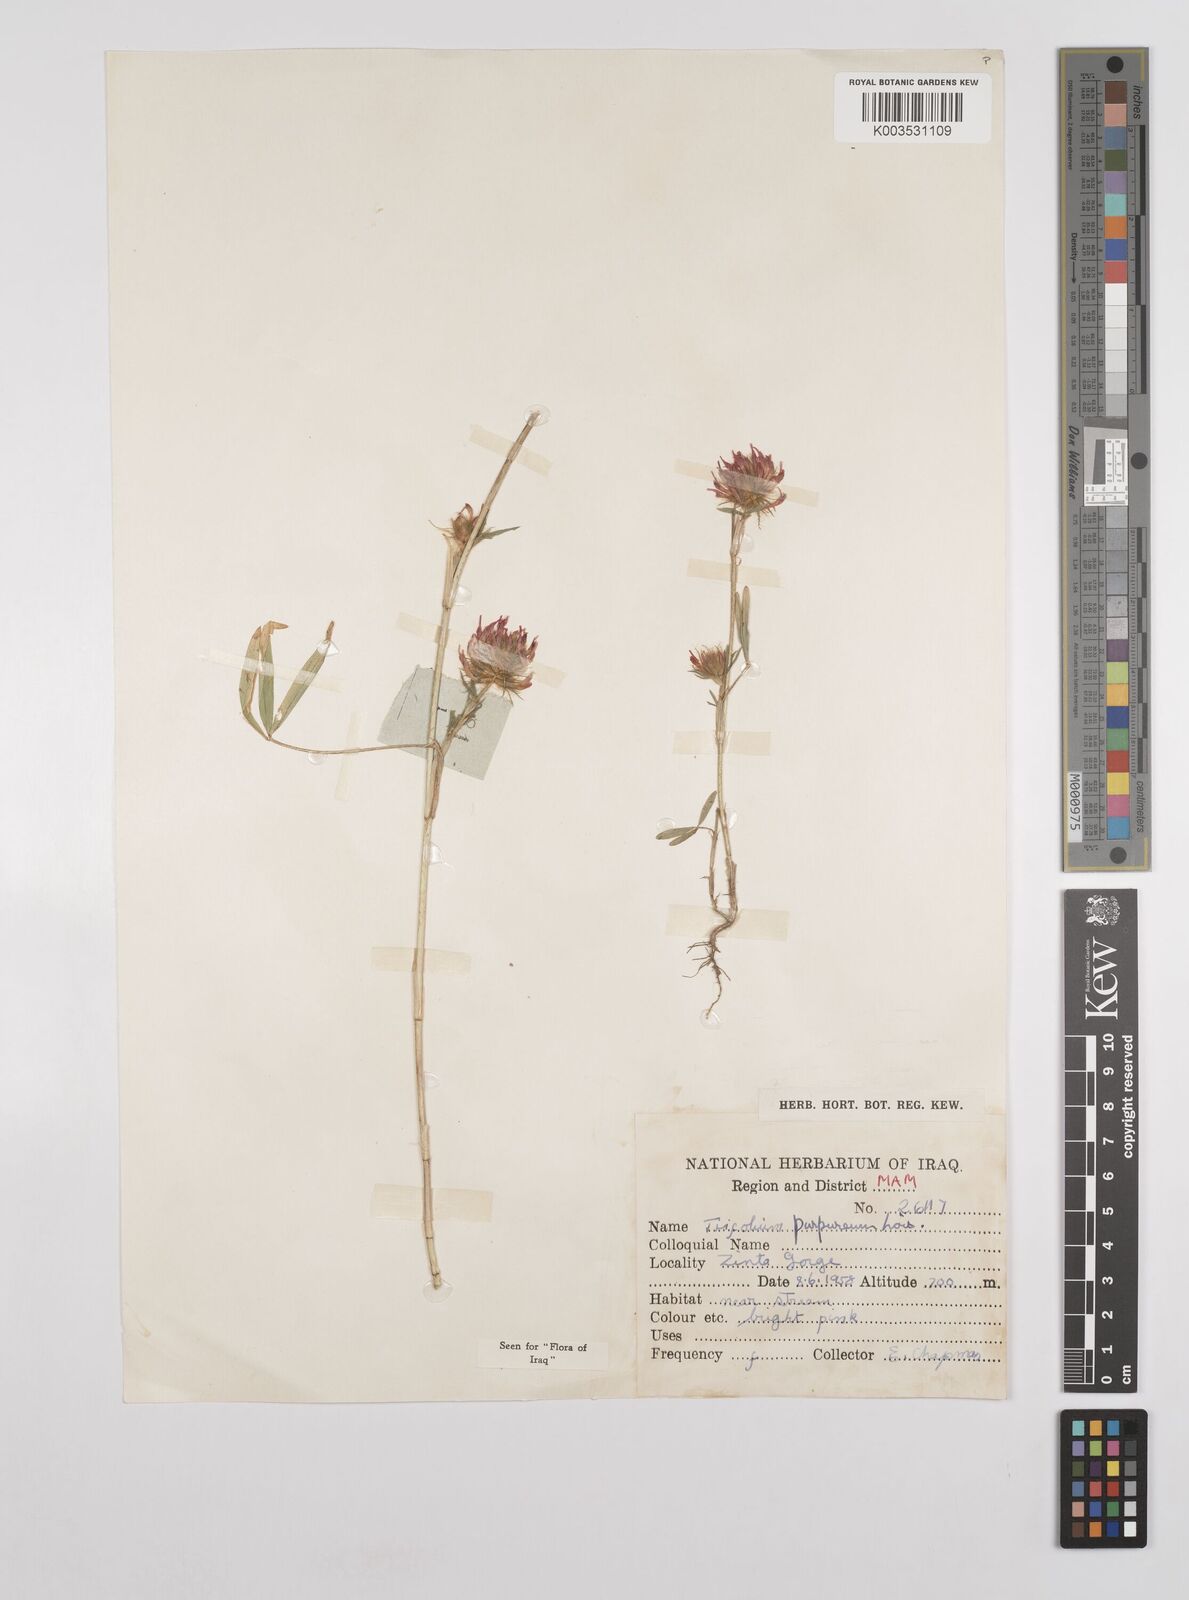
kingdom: Plantae
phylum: Tracheophyta
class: Magnoliopsida
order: Fabales
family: Fabaceae
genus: Trifolium
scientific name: Trifolium purpureum
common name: Purple clover
